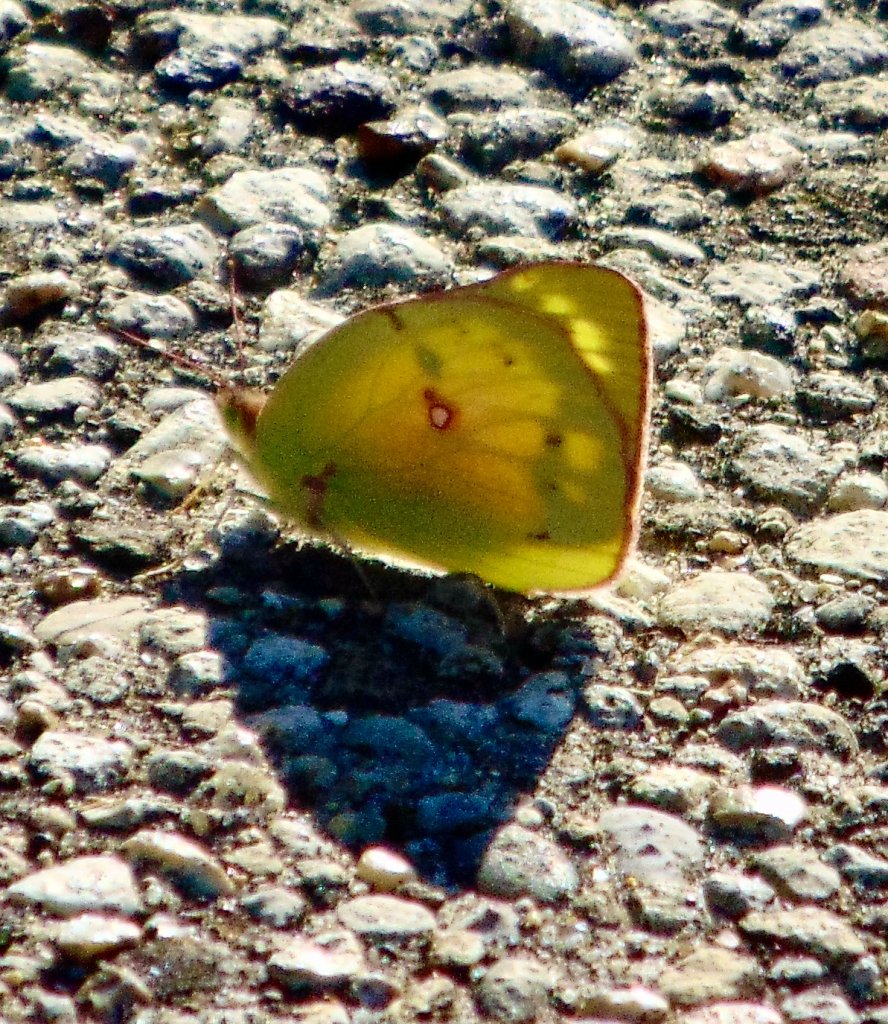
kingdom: Animalia
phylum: Arthropoda
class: Insecta
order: Lepidoptera
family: Pieridae
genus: Colias
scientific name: Colias eurytheme
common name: Orange Sulphur
